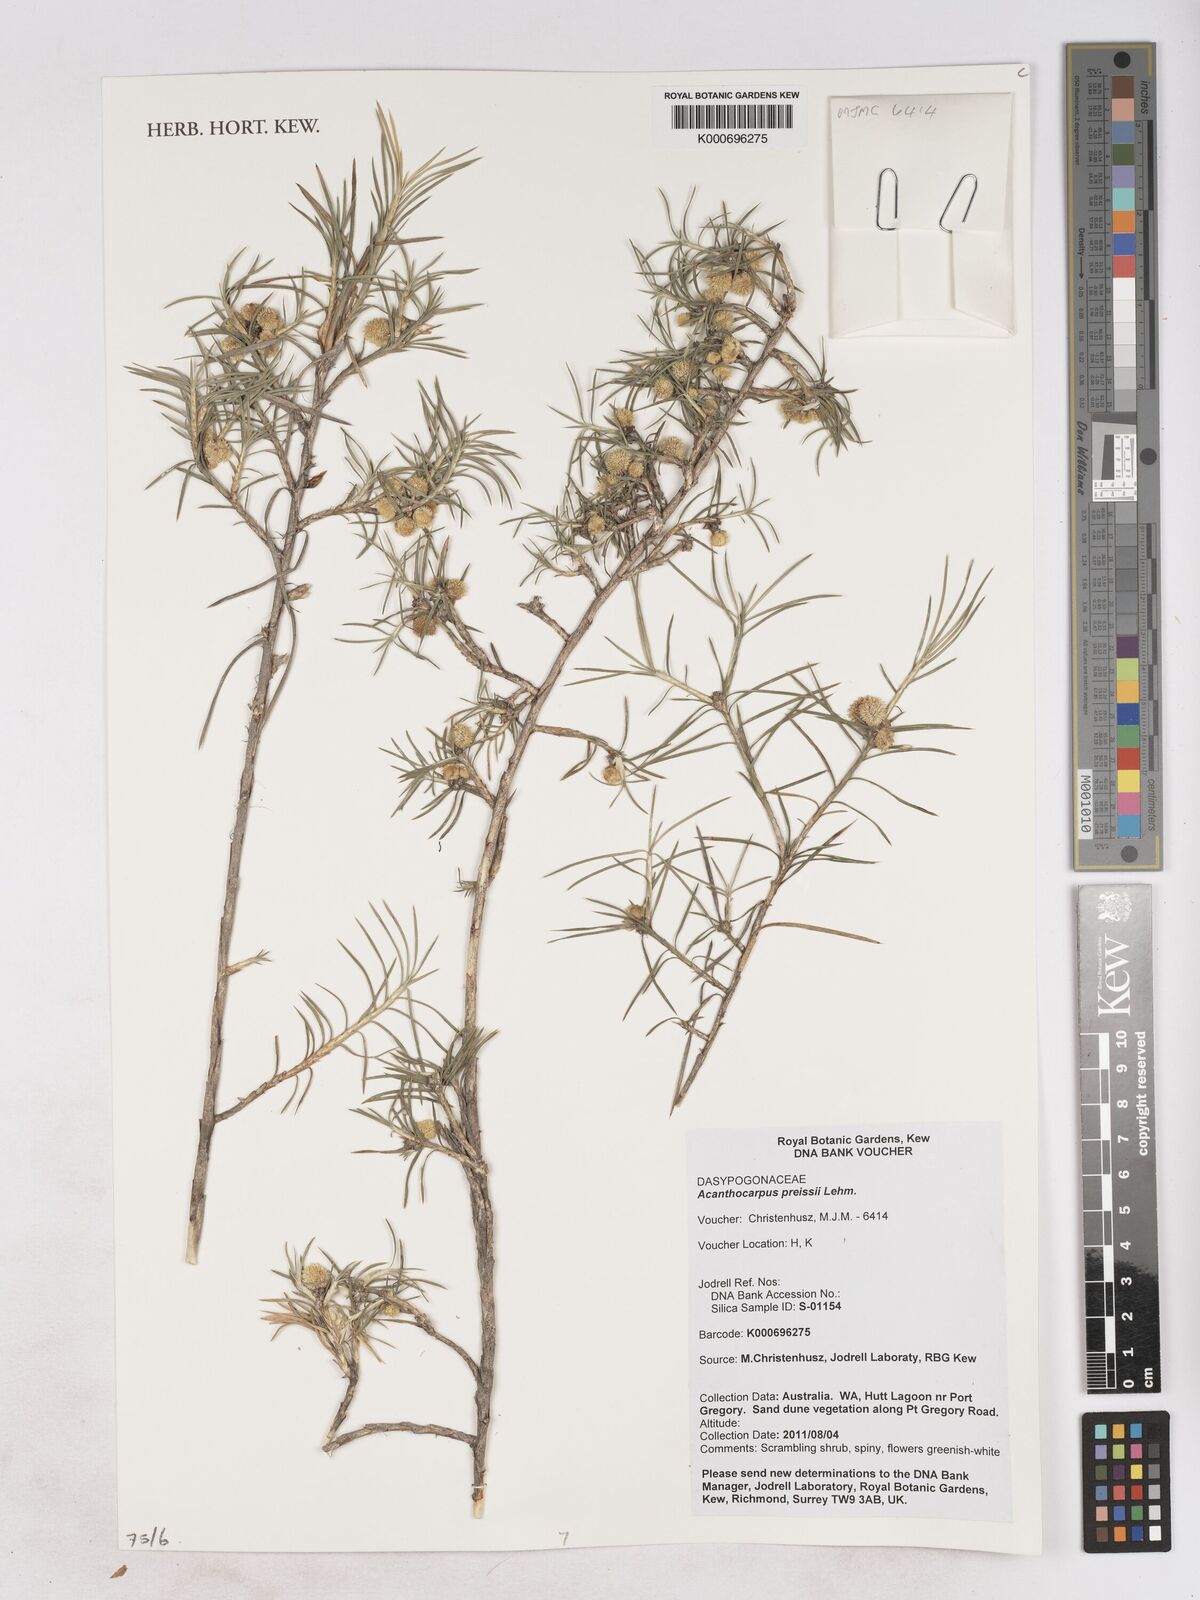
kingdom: Plantae
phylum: Tracheophyta
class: Liliopsida
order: Asparagales
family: Asparagaceae
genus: Acanthocarpus
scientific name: Acanthocarpus preissii
